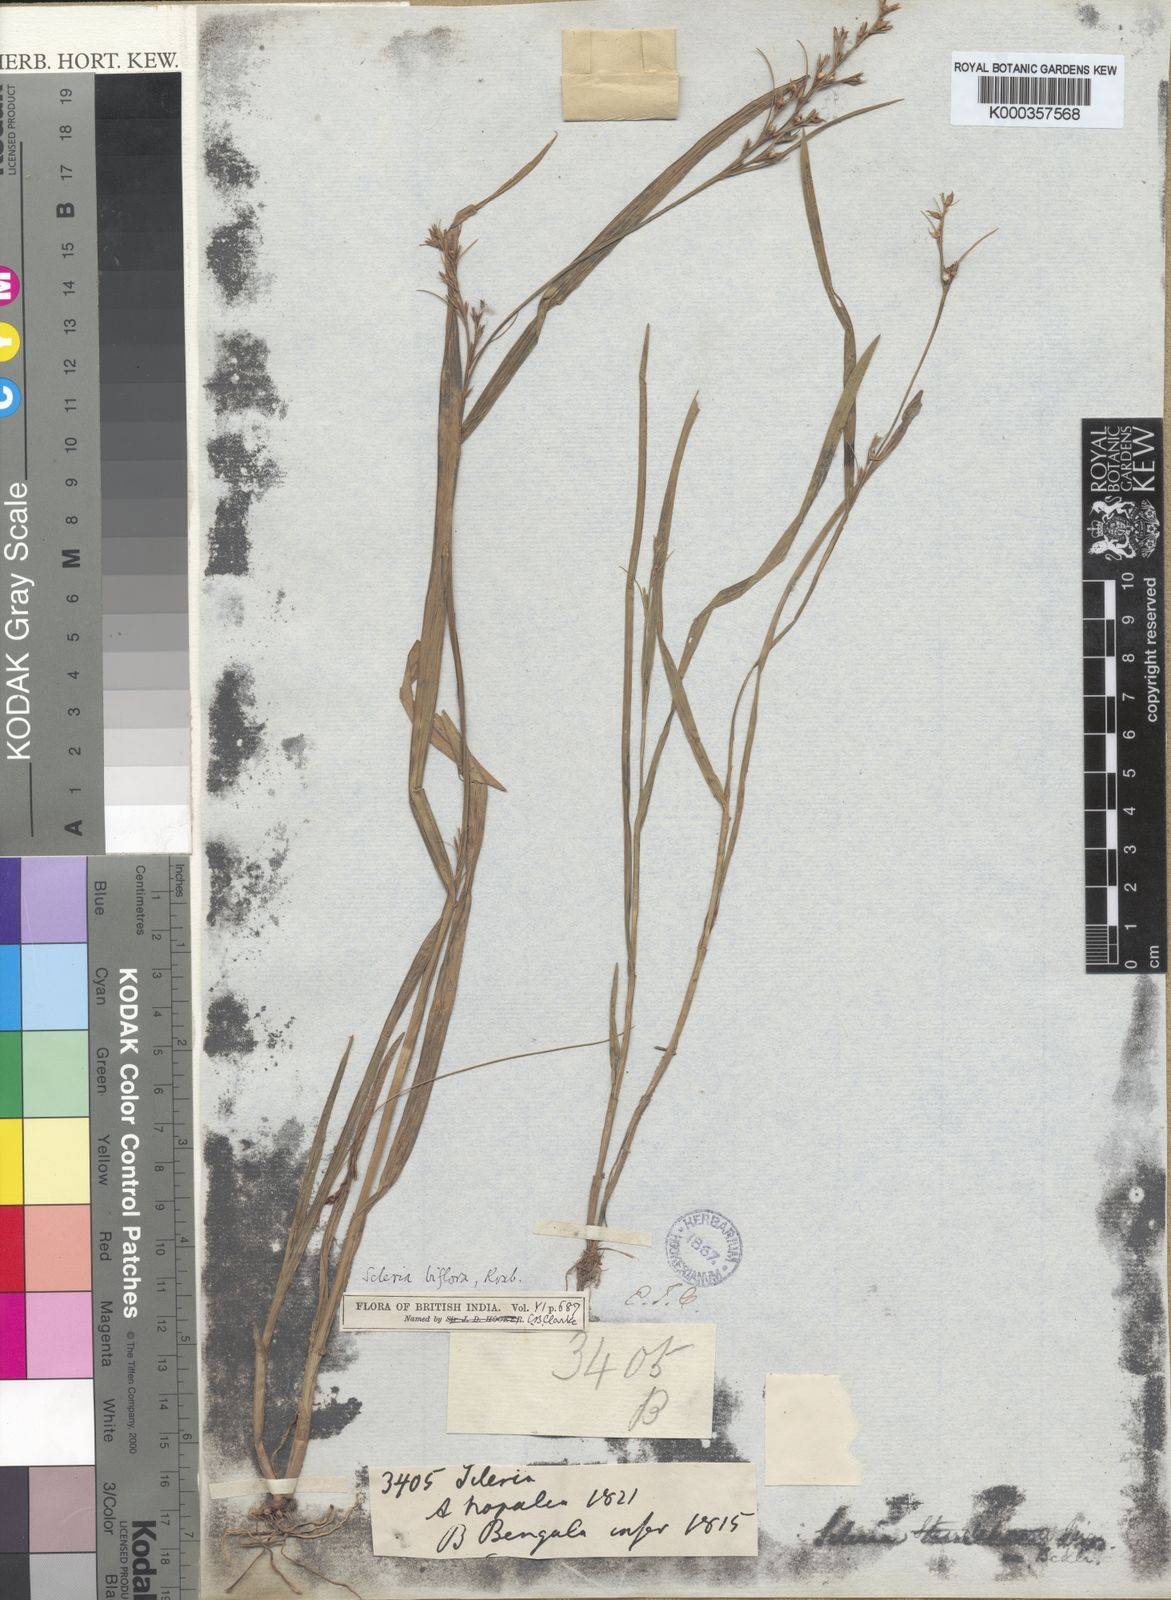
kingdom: Plantae
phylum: Tracheophyta
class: Liliopsida
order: Poales
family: Cyperaceae
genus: Scleria
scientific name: Scleria biflora
